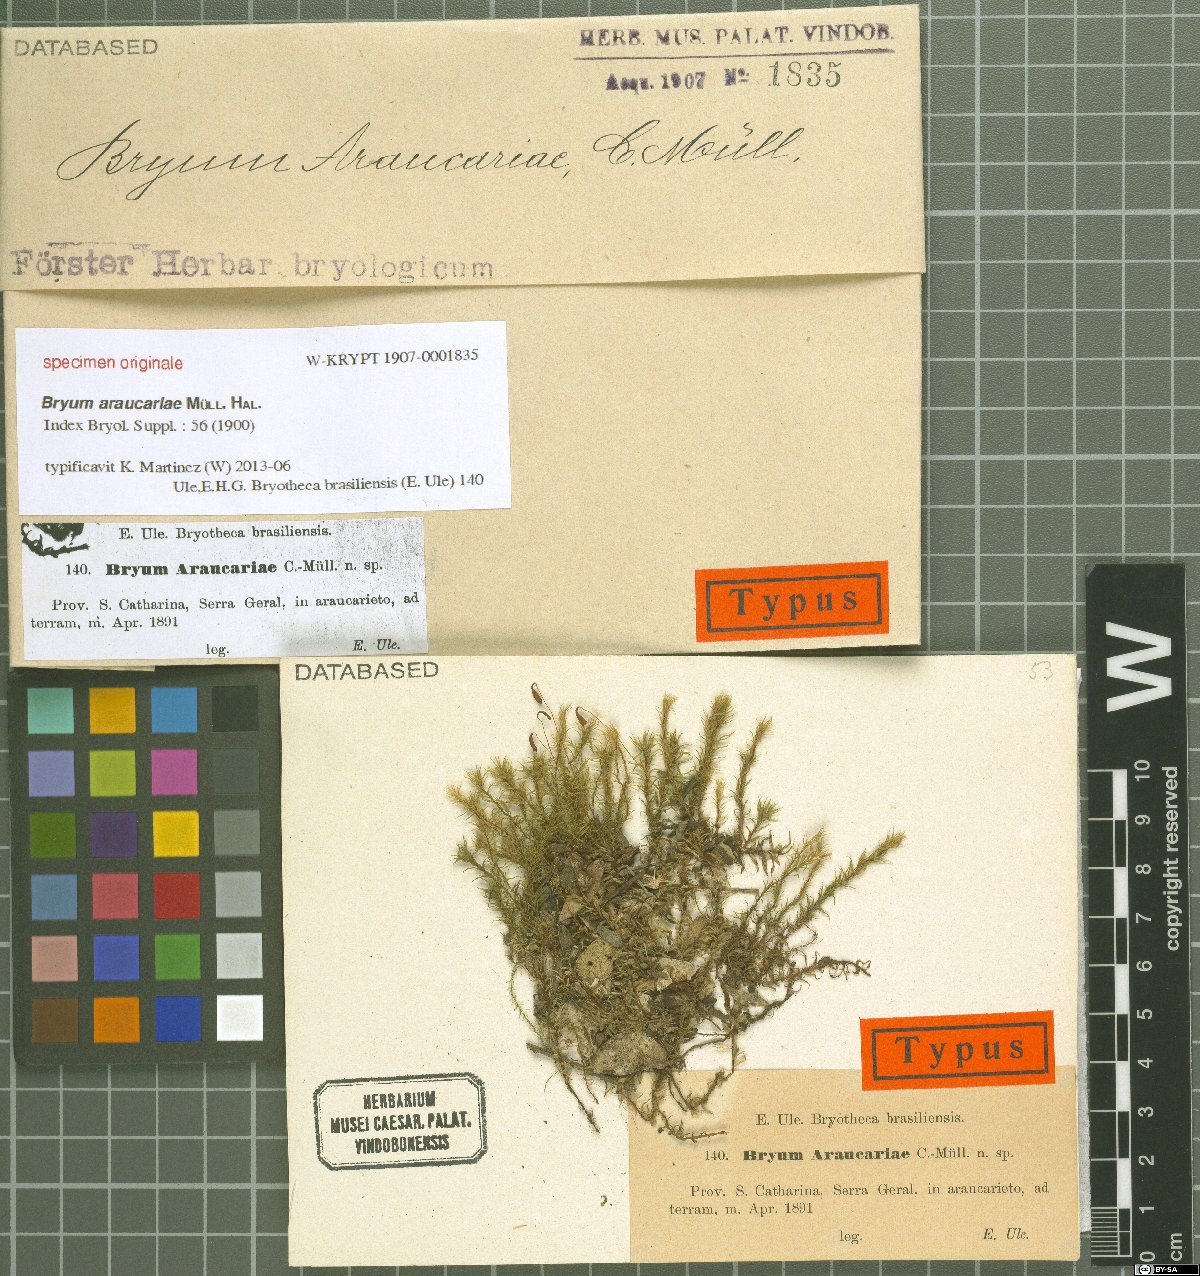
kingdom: Plantae
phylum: Bryophyta
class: Bryopsida
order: Bryales
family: Bryaceae
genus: Bryum
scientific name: Bryum
